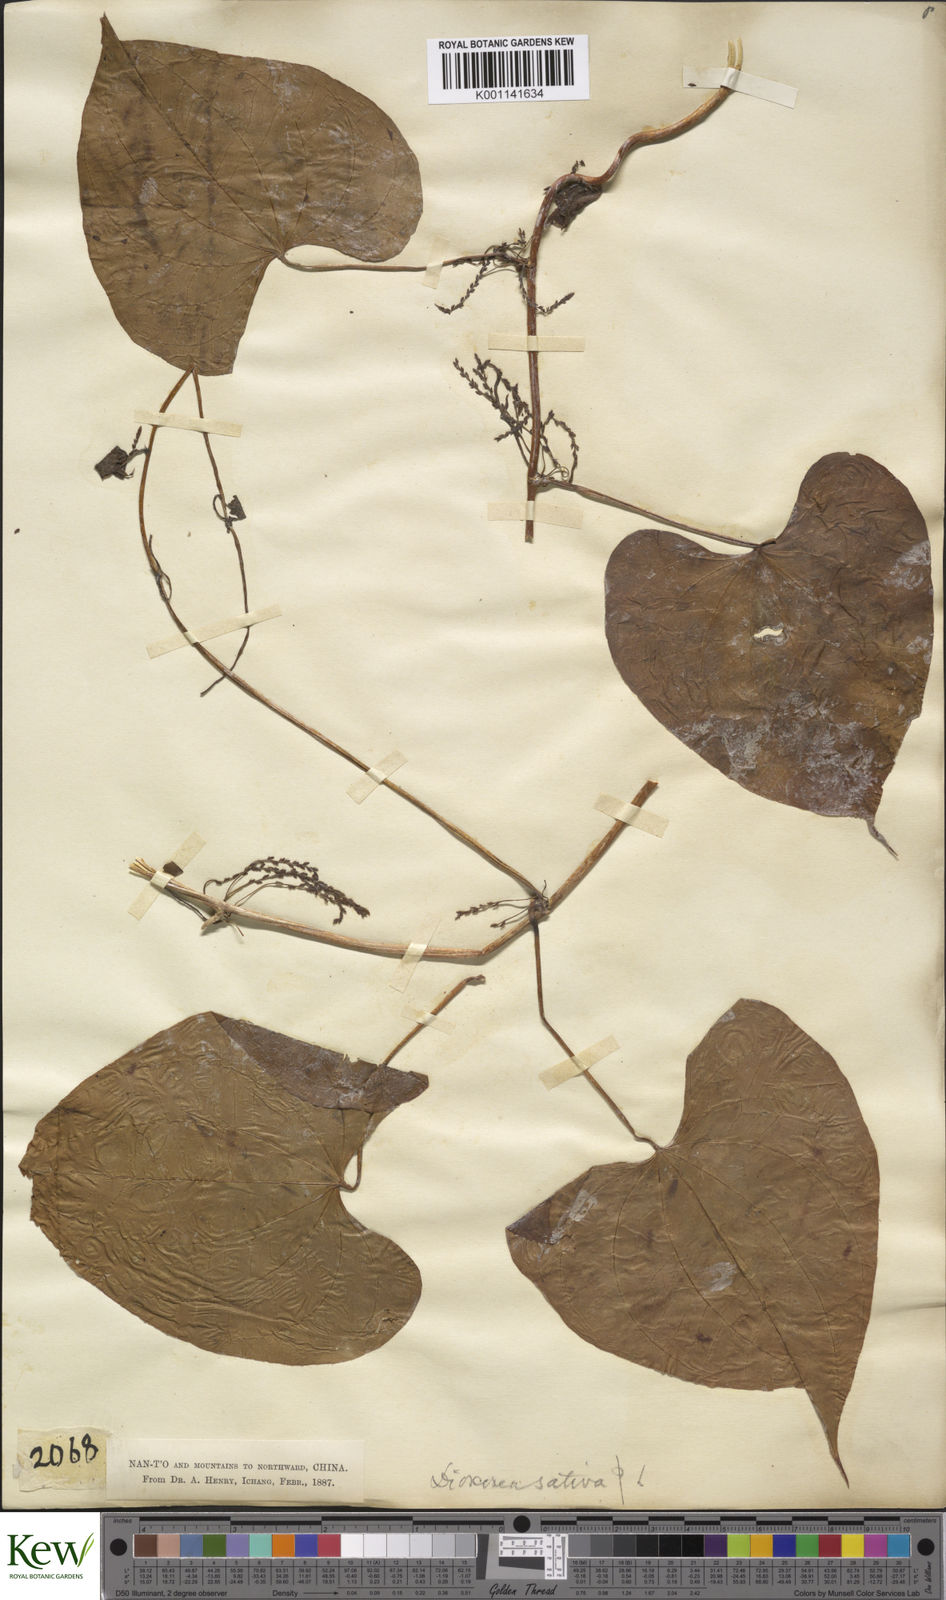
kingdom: Plantae
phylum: Tracheophyta
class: Liliopsida
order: Dioscoreales
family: Dioscoreaceae
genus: Dioscorea
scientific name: Dioscorea bulbifera
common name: Air yam
